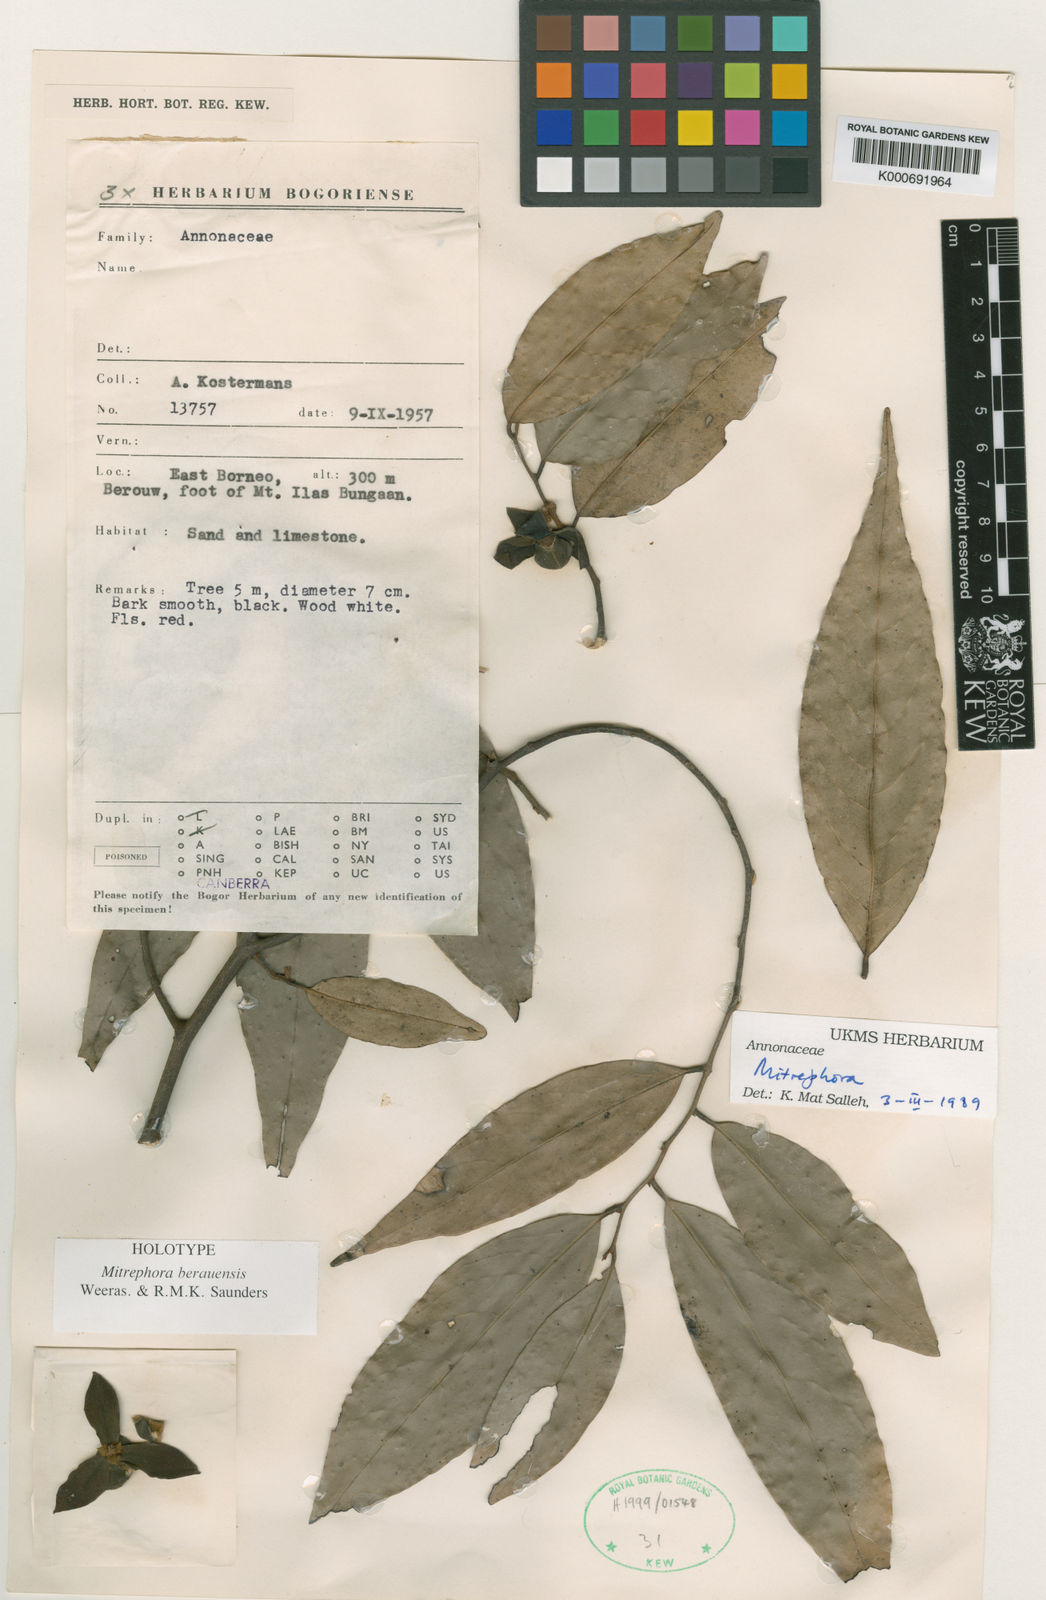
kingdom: Plantae
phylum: Tracheophyta
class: Magnoliopsida
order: Magnoliales
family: Annonaceae
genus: Mitrephora
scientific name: Mitrephora
